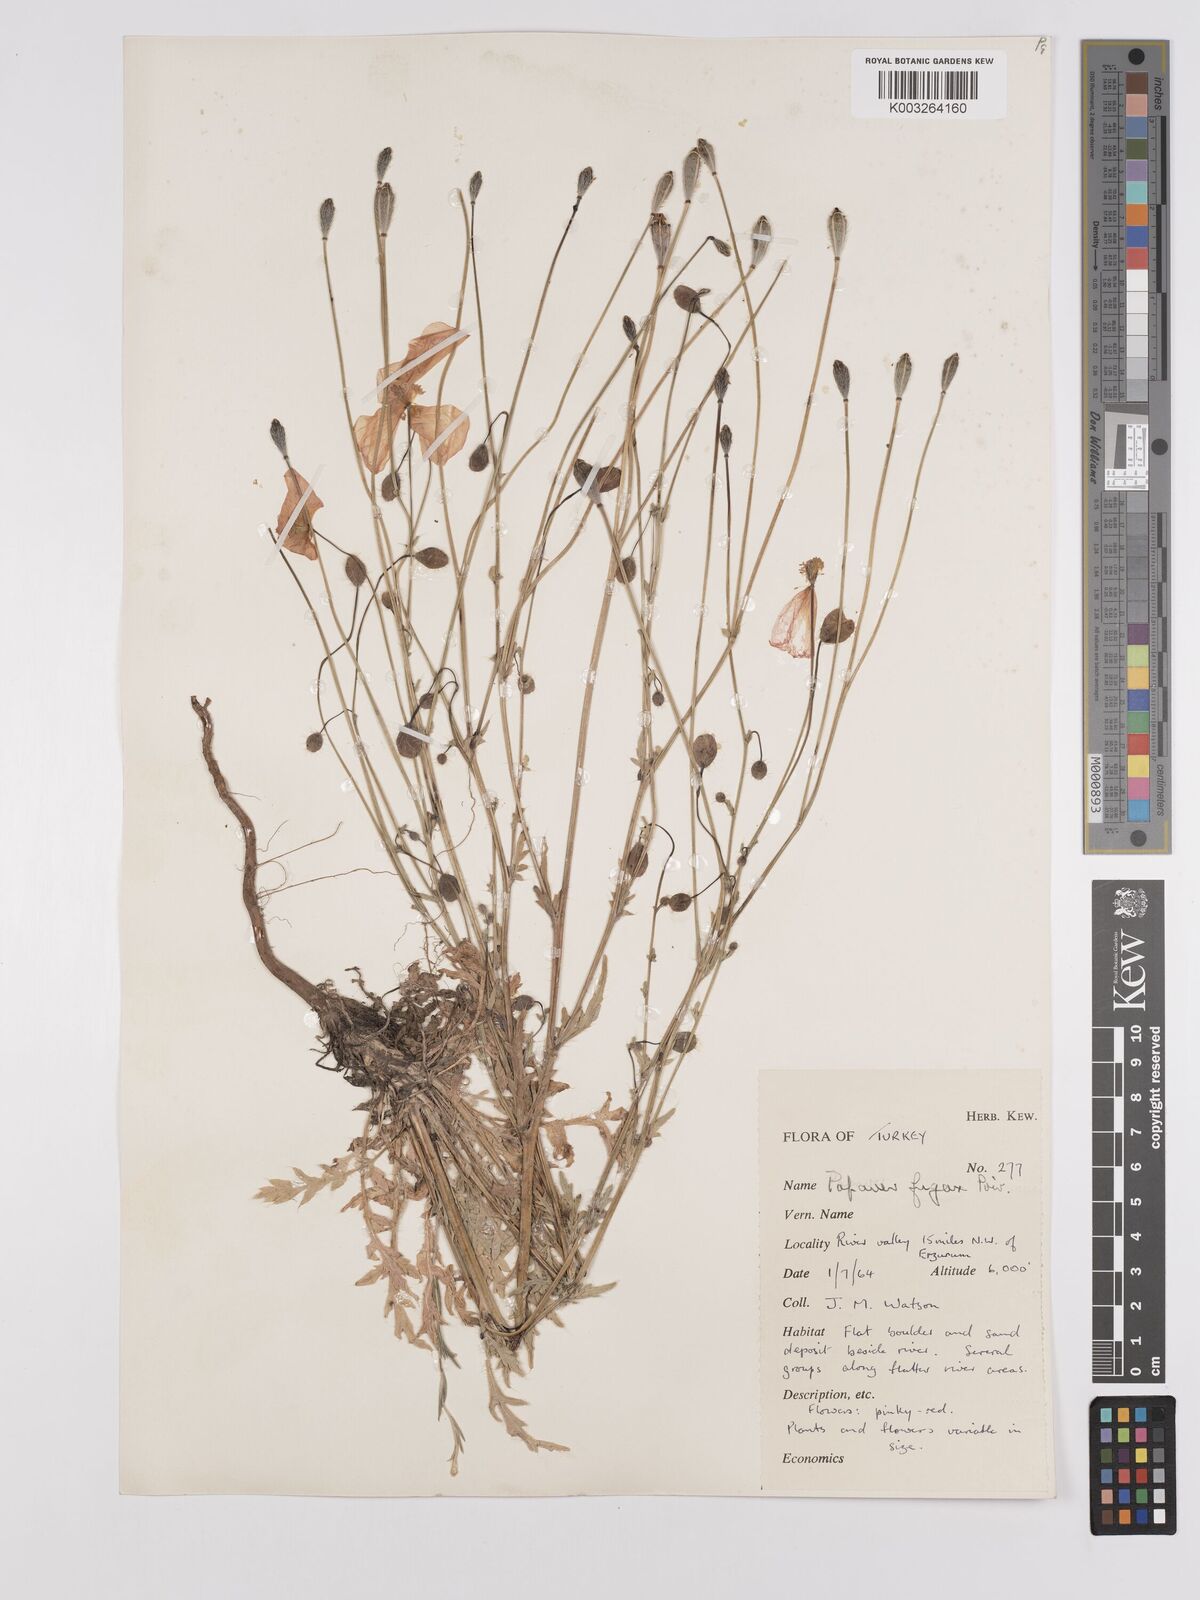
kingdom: Plantae
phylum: Tracheophyta
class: Magnoliopsida
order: Ranunculales
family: Papaveraceae
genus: Papaver
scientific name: Papaver armeniacum
